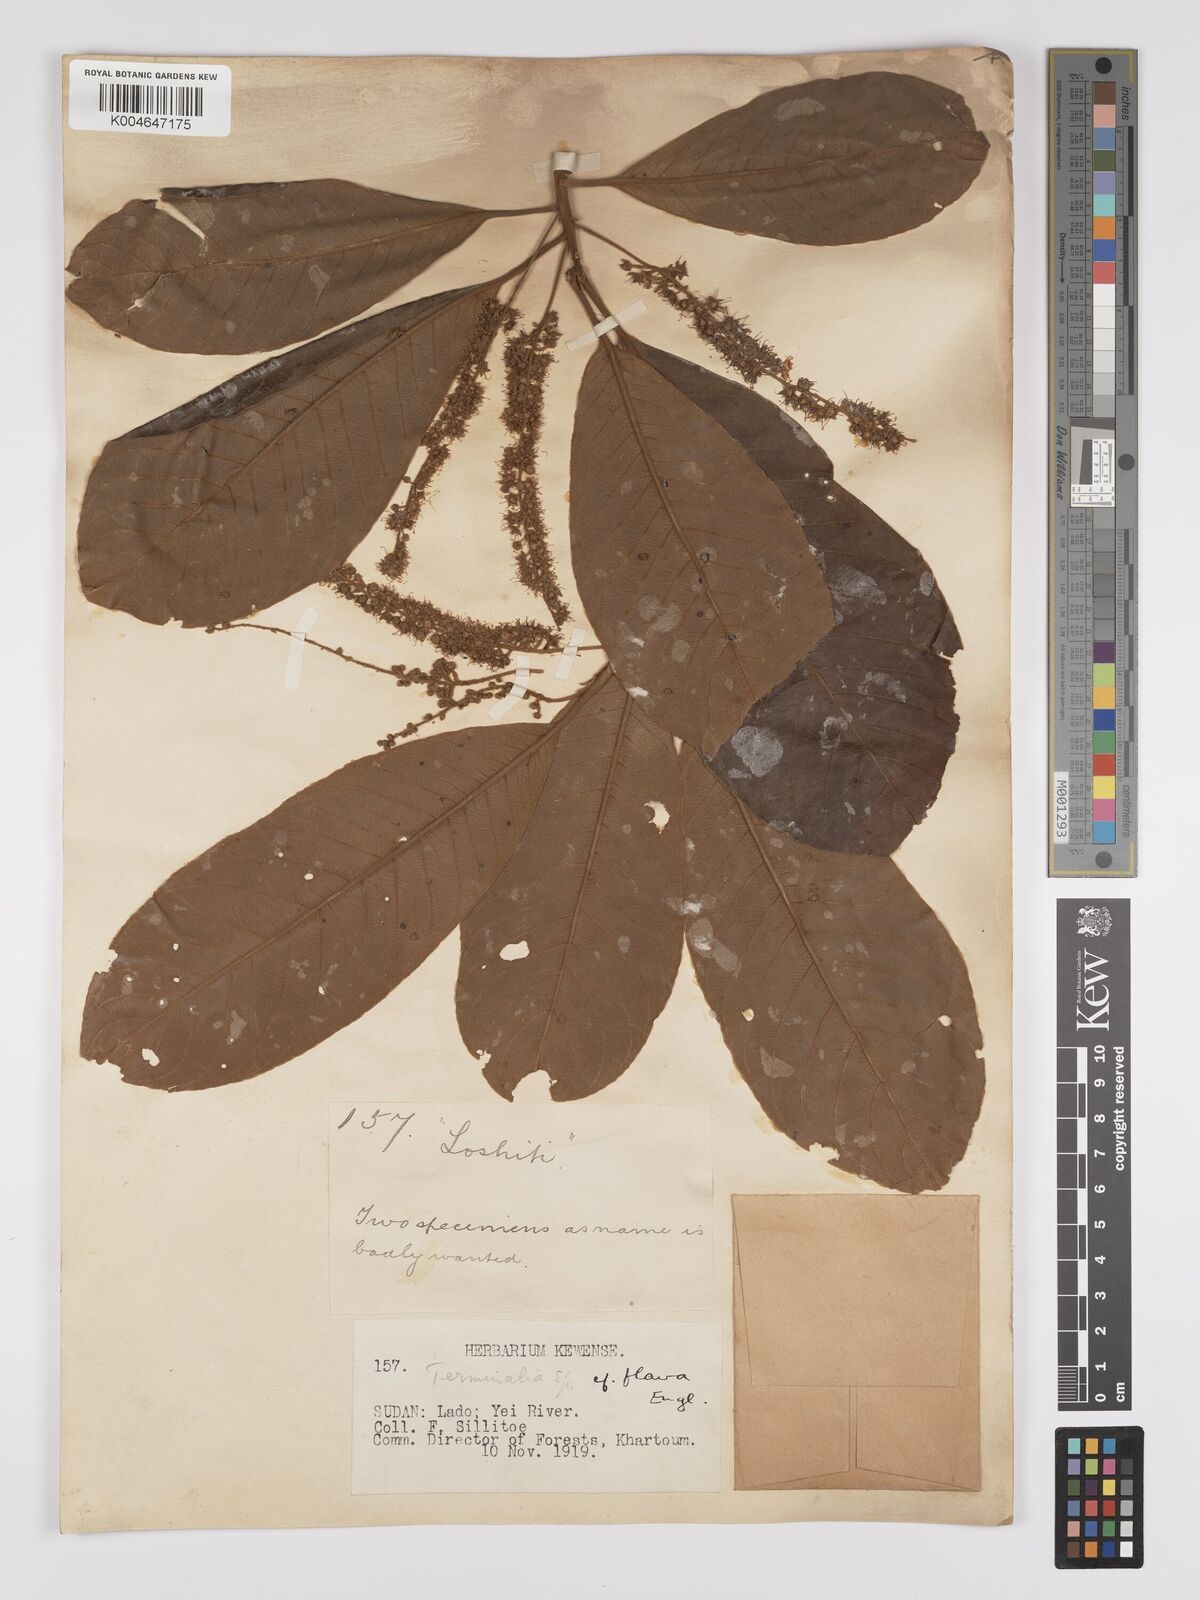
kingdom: Plantae
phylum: Tracheophyta
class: Magnoliopsida
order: Myrtales
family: Combretaceae
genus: Terminalia
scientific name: Terminalia schimperiana
